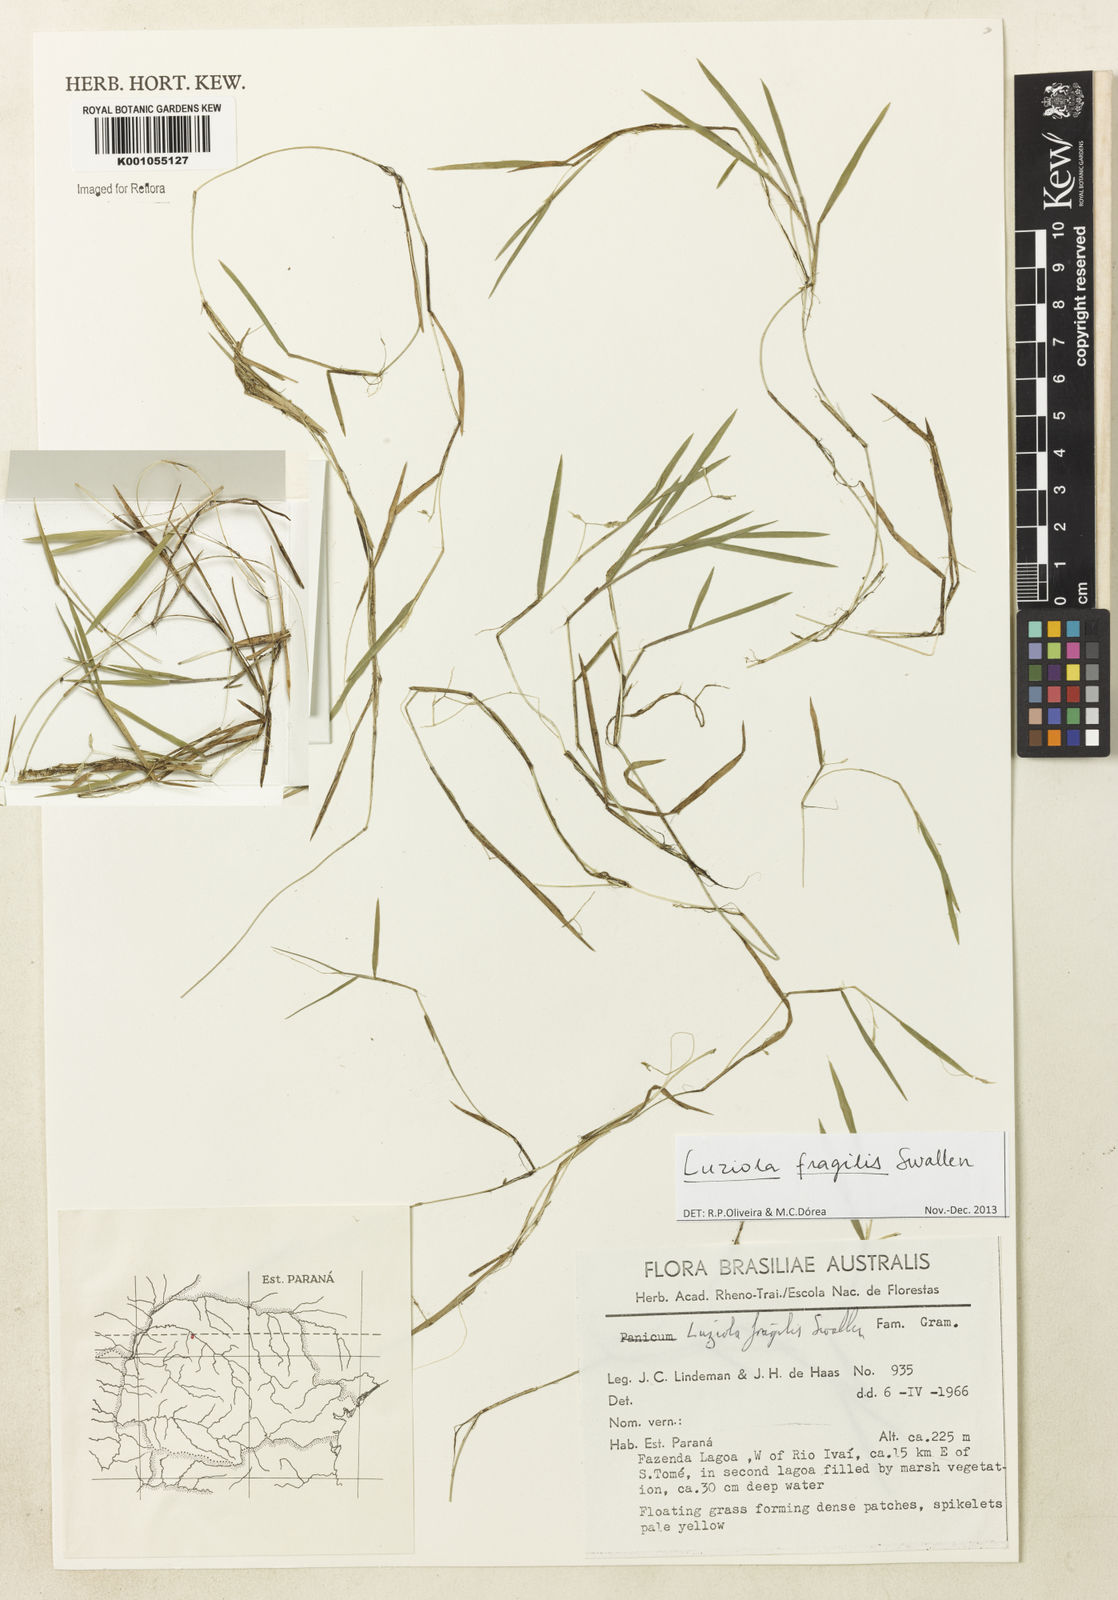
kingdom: Plantae
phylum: Tracheophyta
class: Liliopsida
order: Poales
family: Poaceae
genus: Luziola
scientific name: Luziola fragilis
